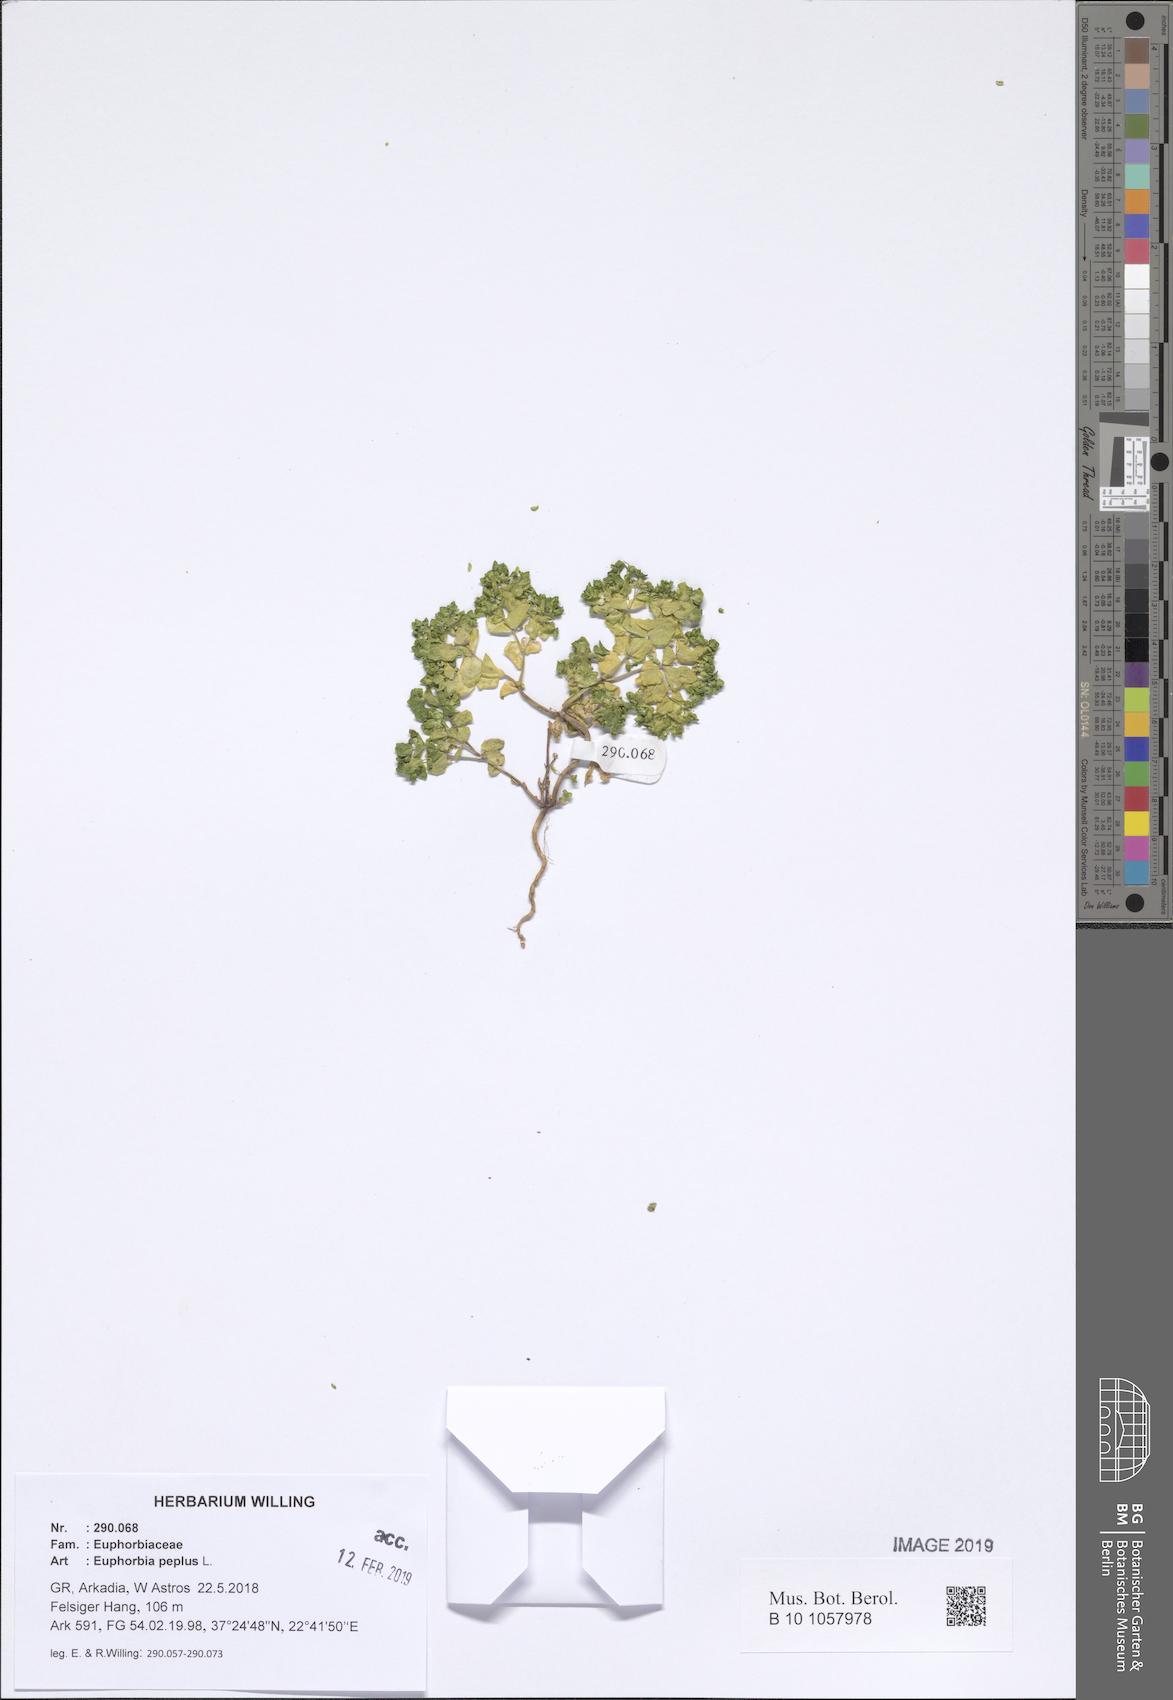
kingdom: Plantae
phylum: Tracheophyta
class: Magnoliopsida
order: Malpighiales
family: Euphorbiaceae
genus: Euphorbia
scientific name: Euphorbia peplus
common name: Petty spurge
